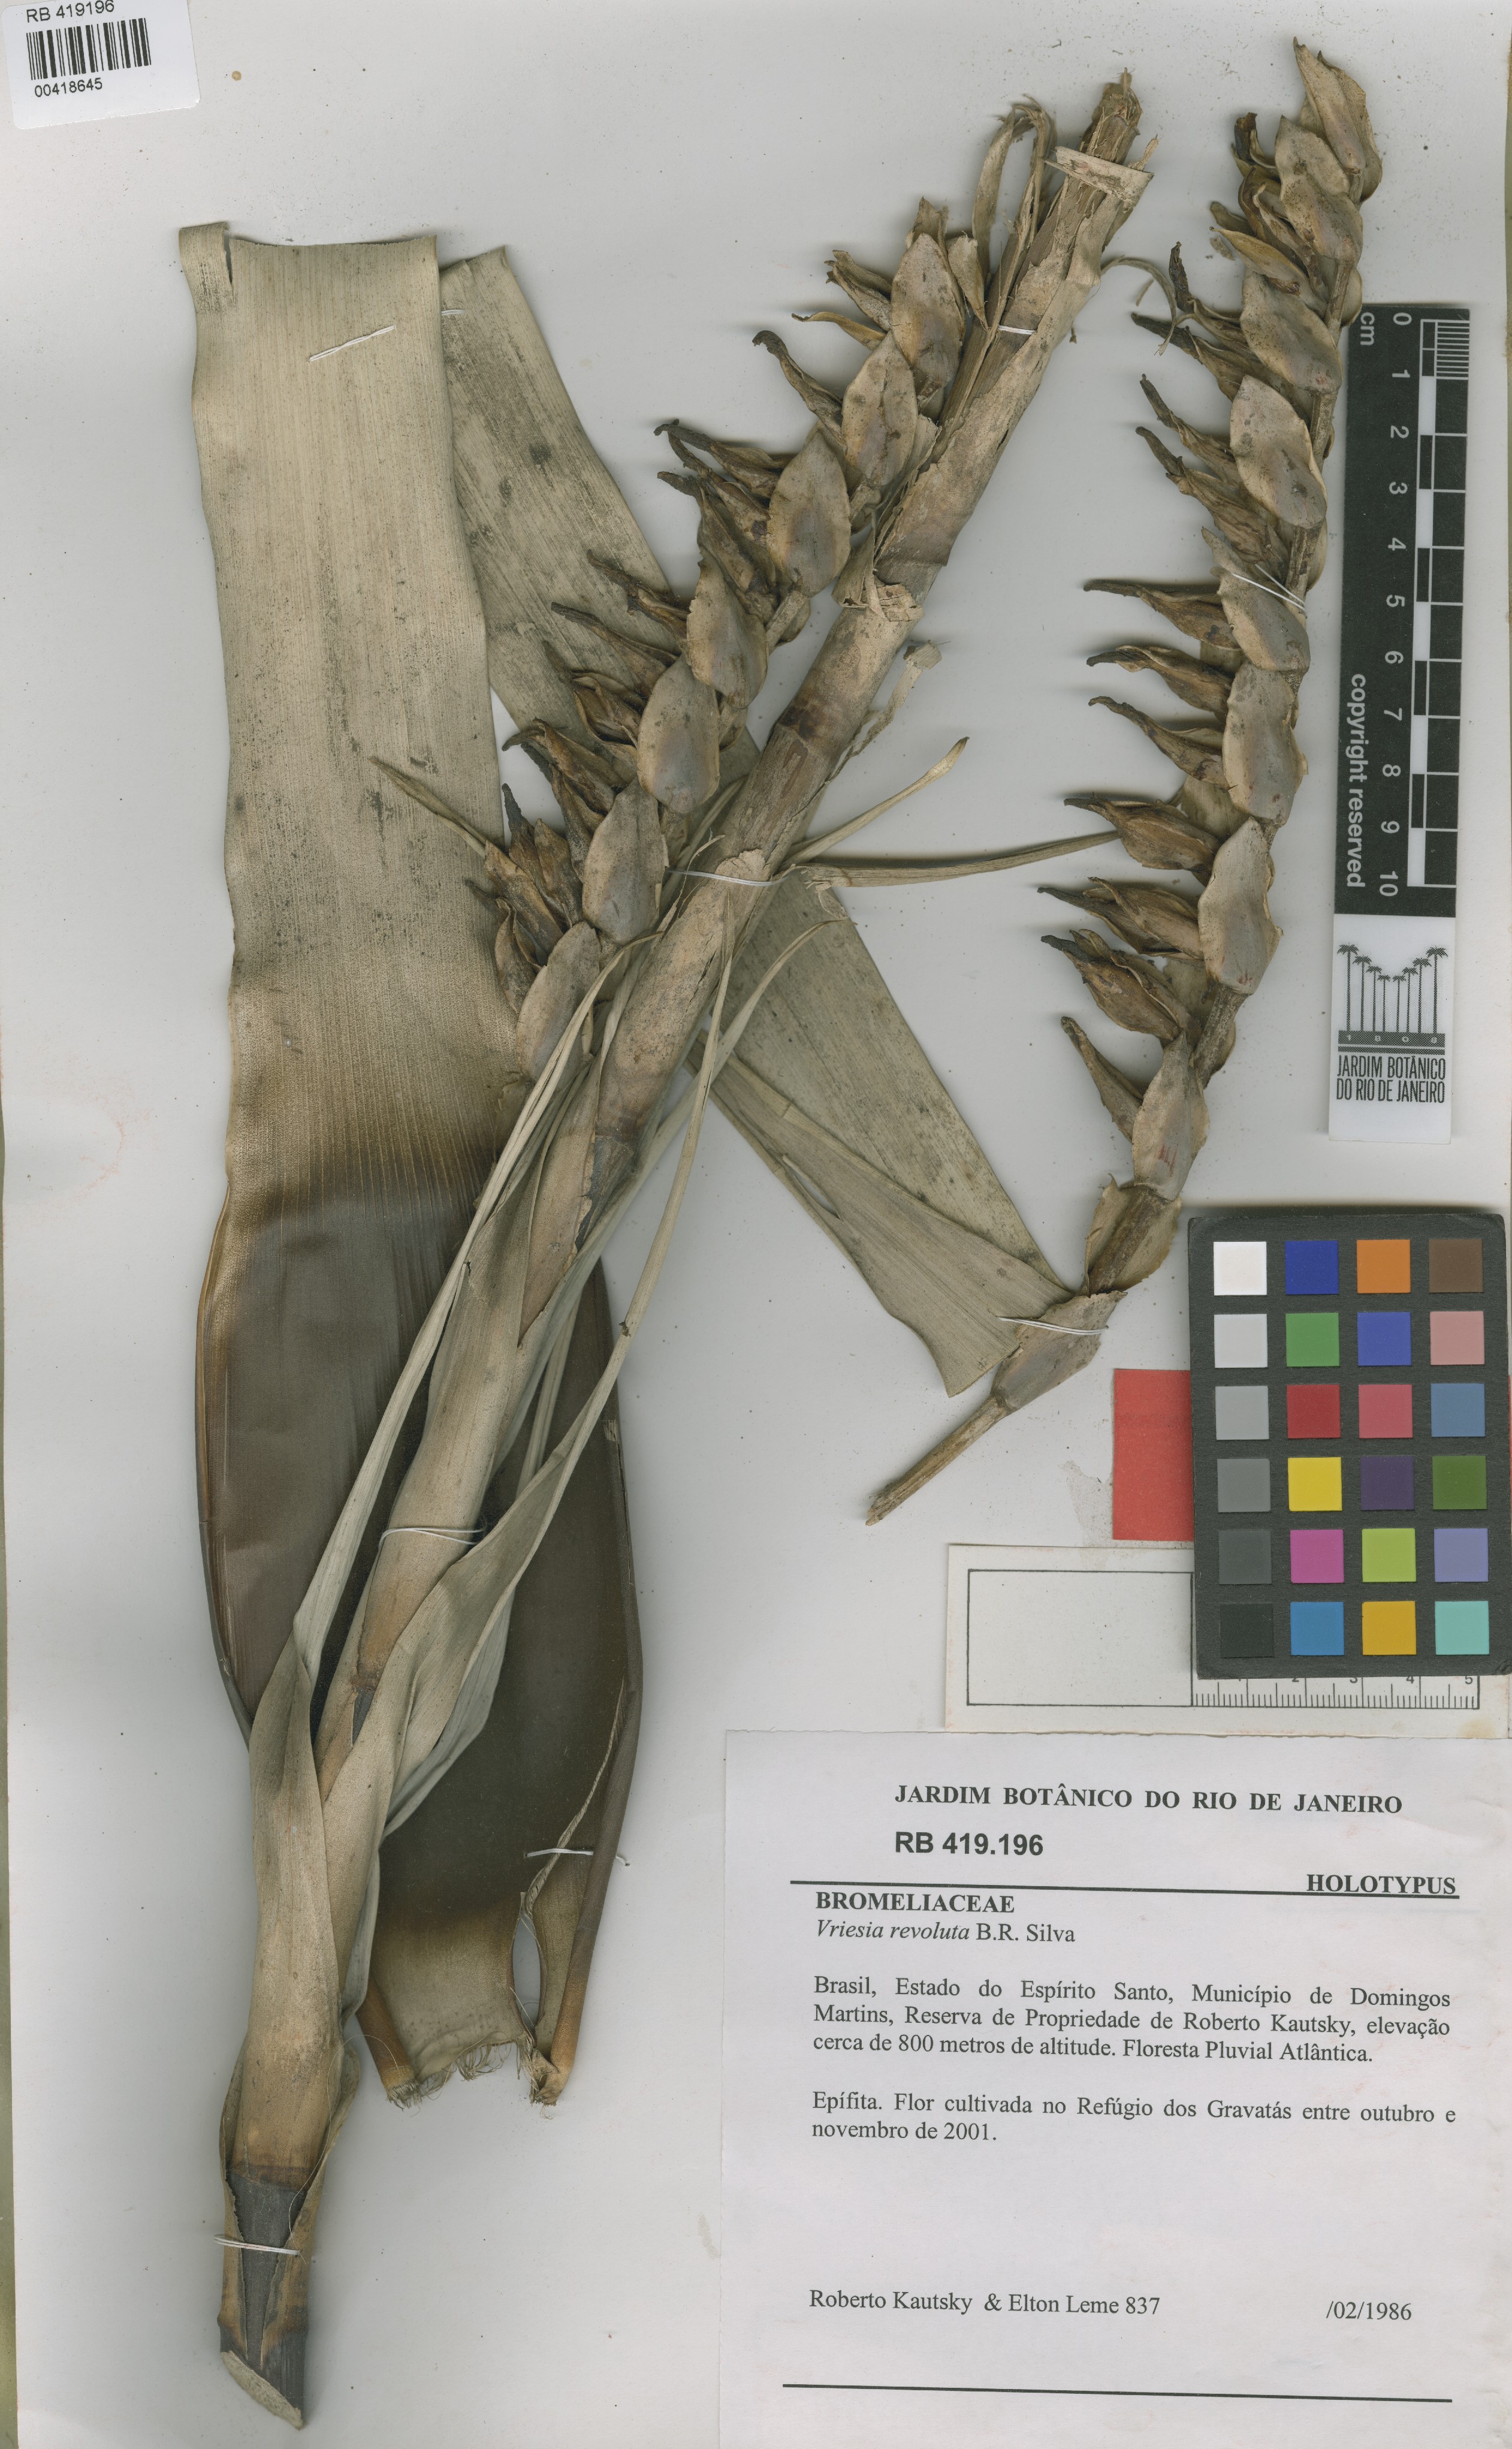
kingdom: Plantae
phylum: Tracheophyta
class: Liliopsida
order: Poales
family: Bromeliaceae
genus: Vriesea
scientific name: Vriesea revoluta
